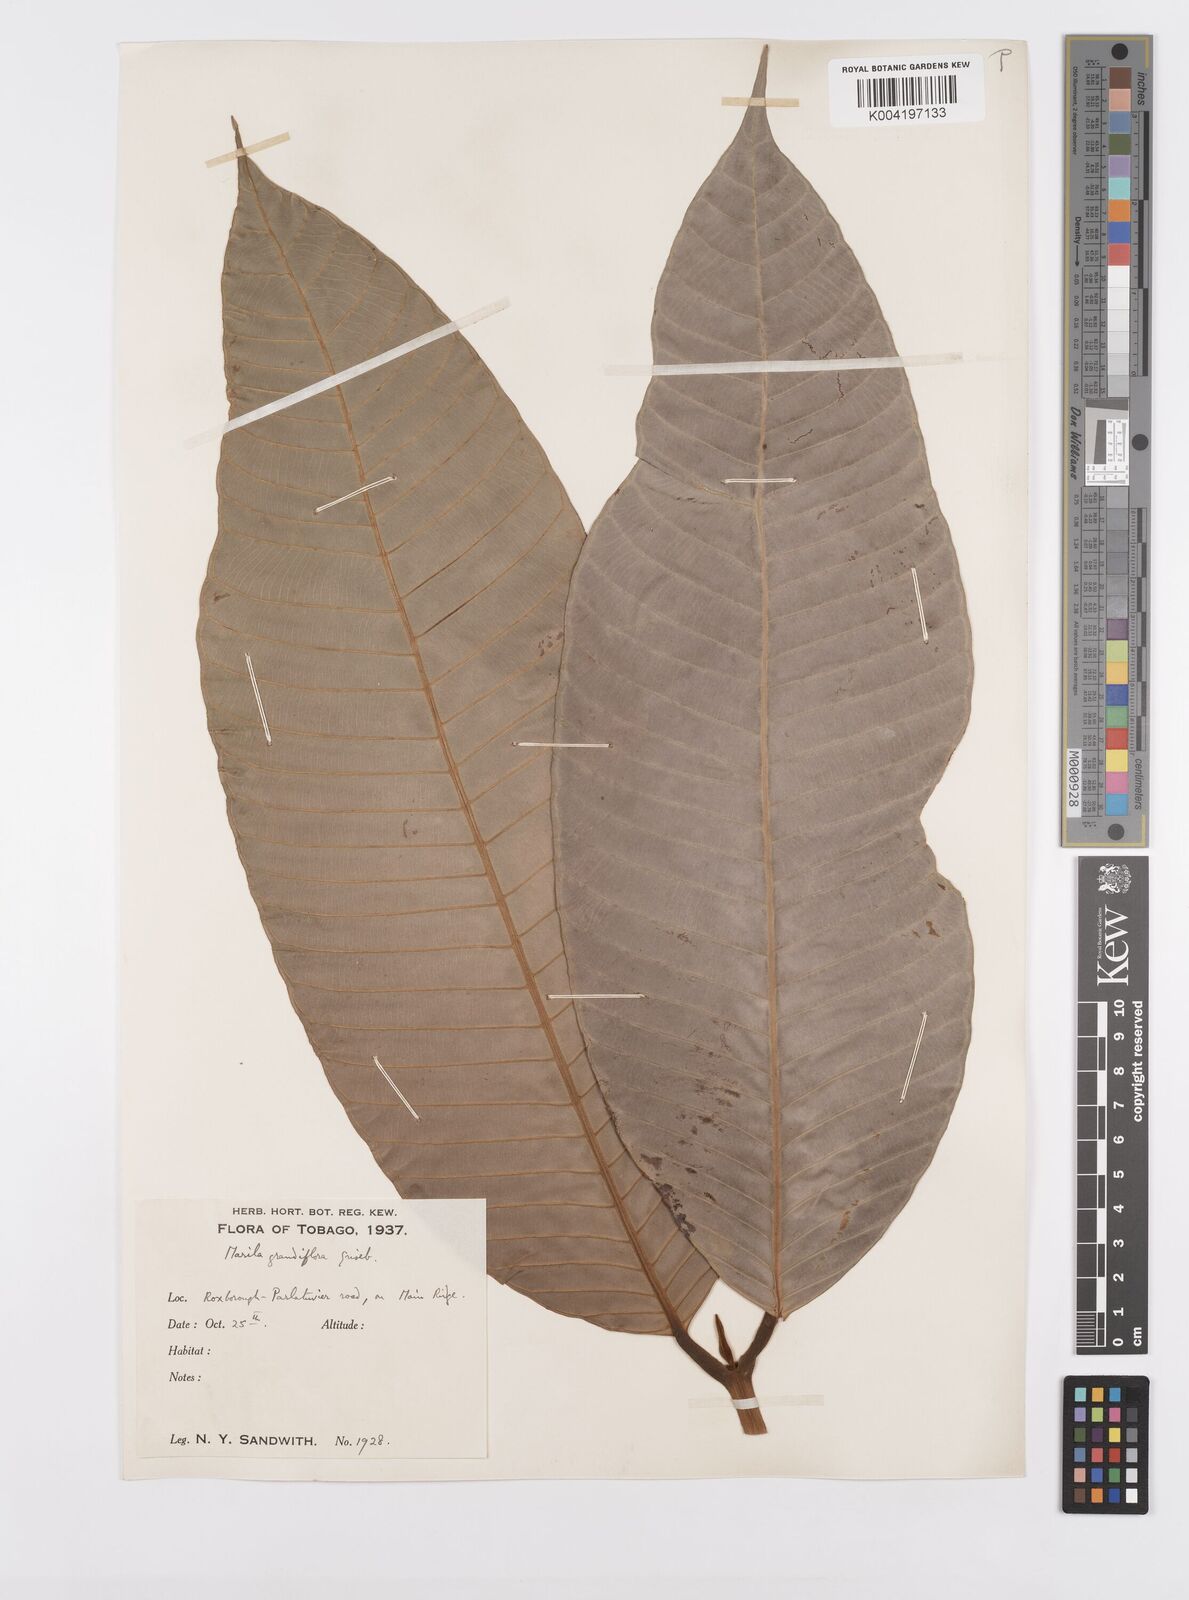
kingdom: Plantae
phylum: Tracheophyta
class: Magnoliopsida
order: Malpighiales
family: Calophyllaceae
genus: Marila
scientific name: Marila grandiflora
